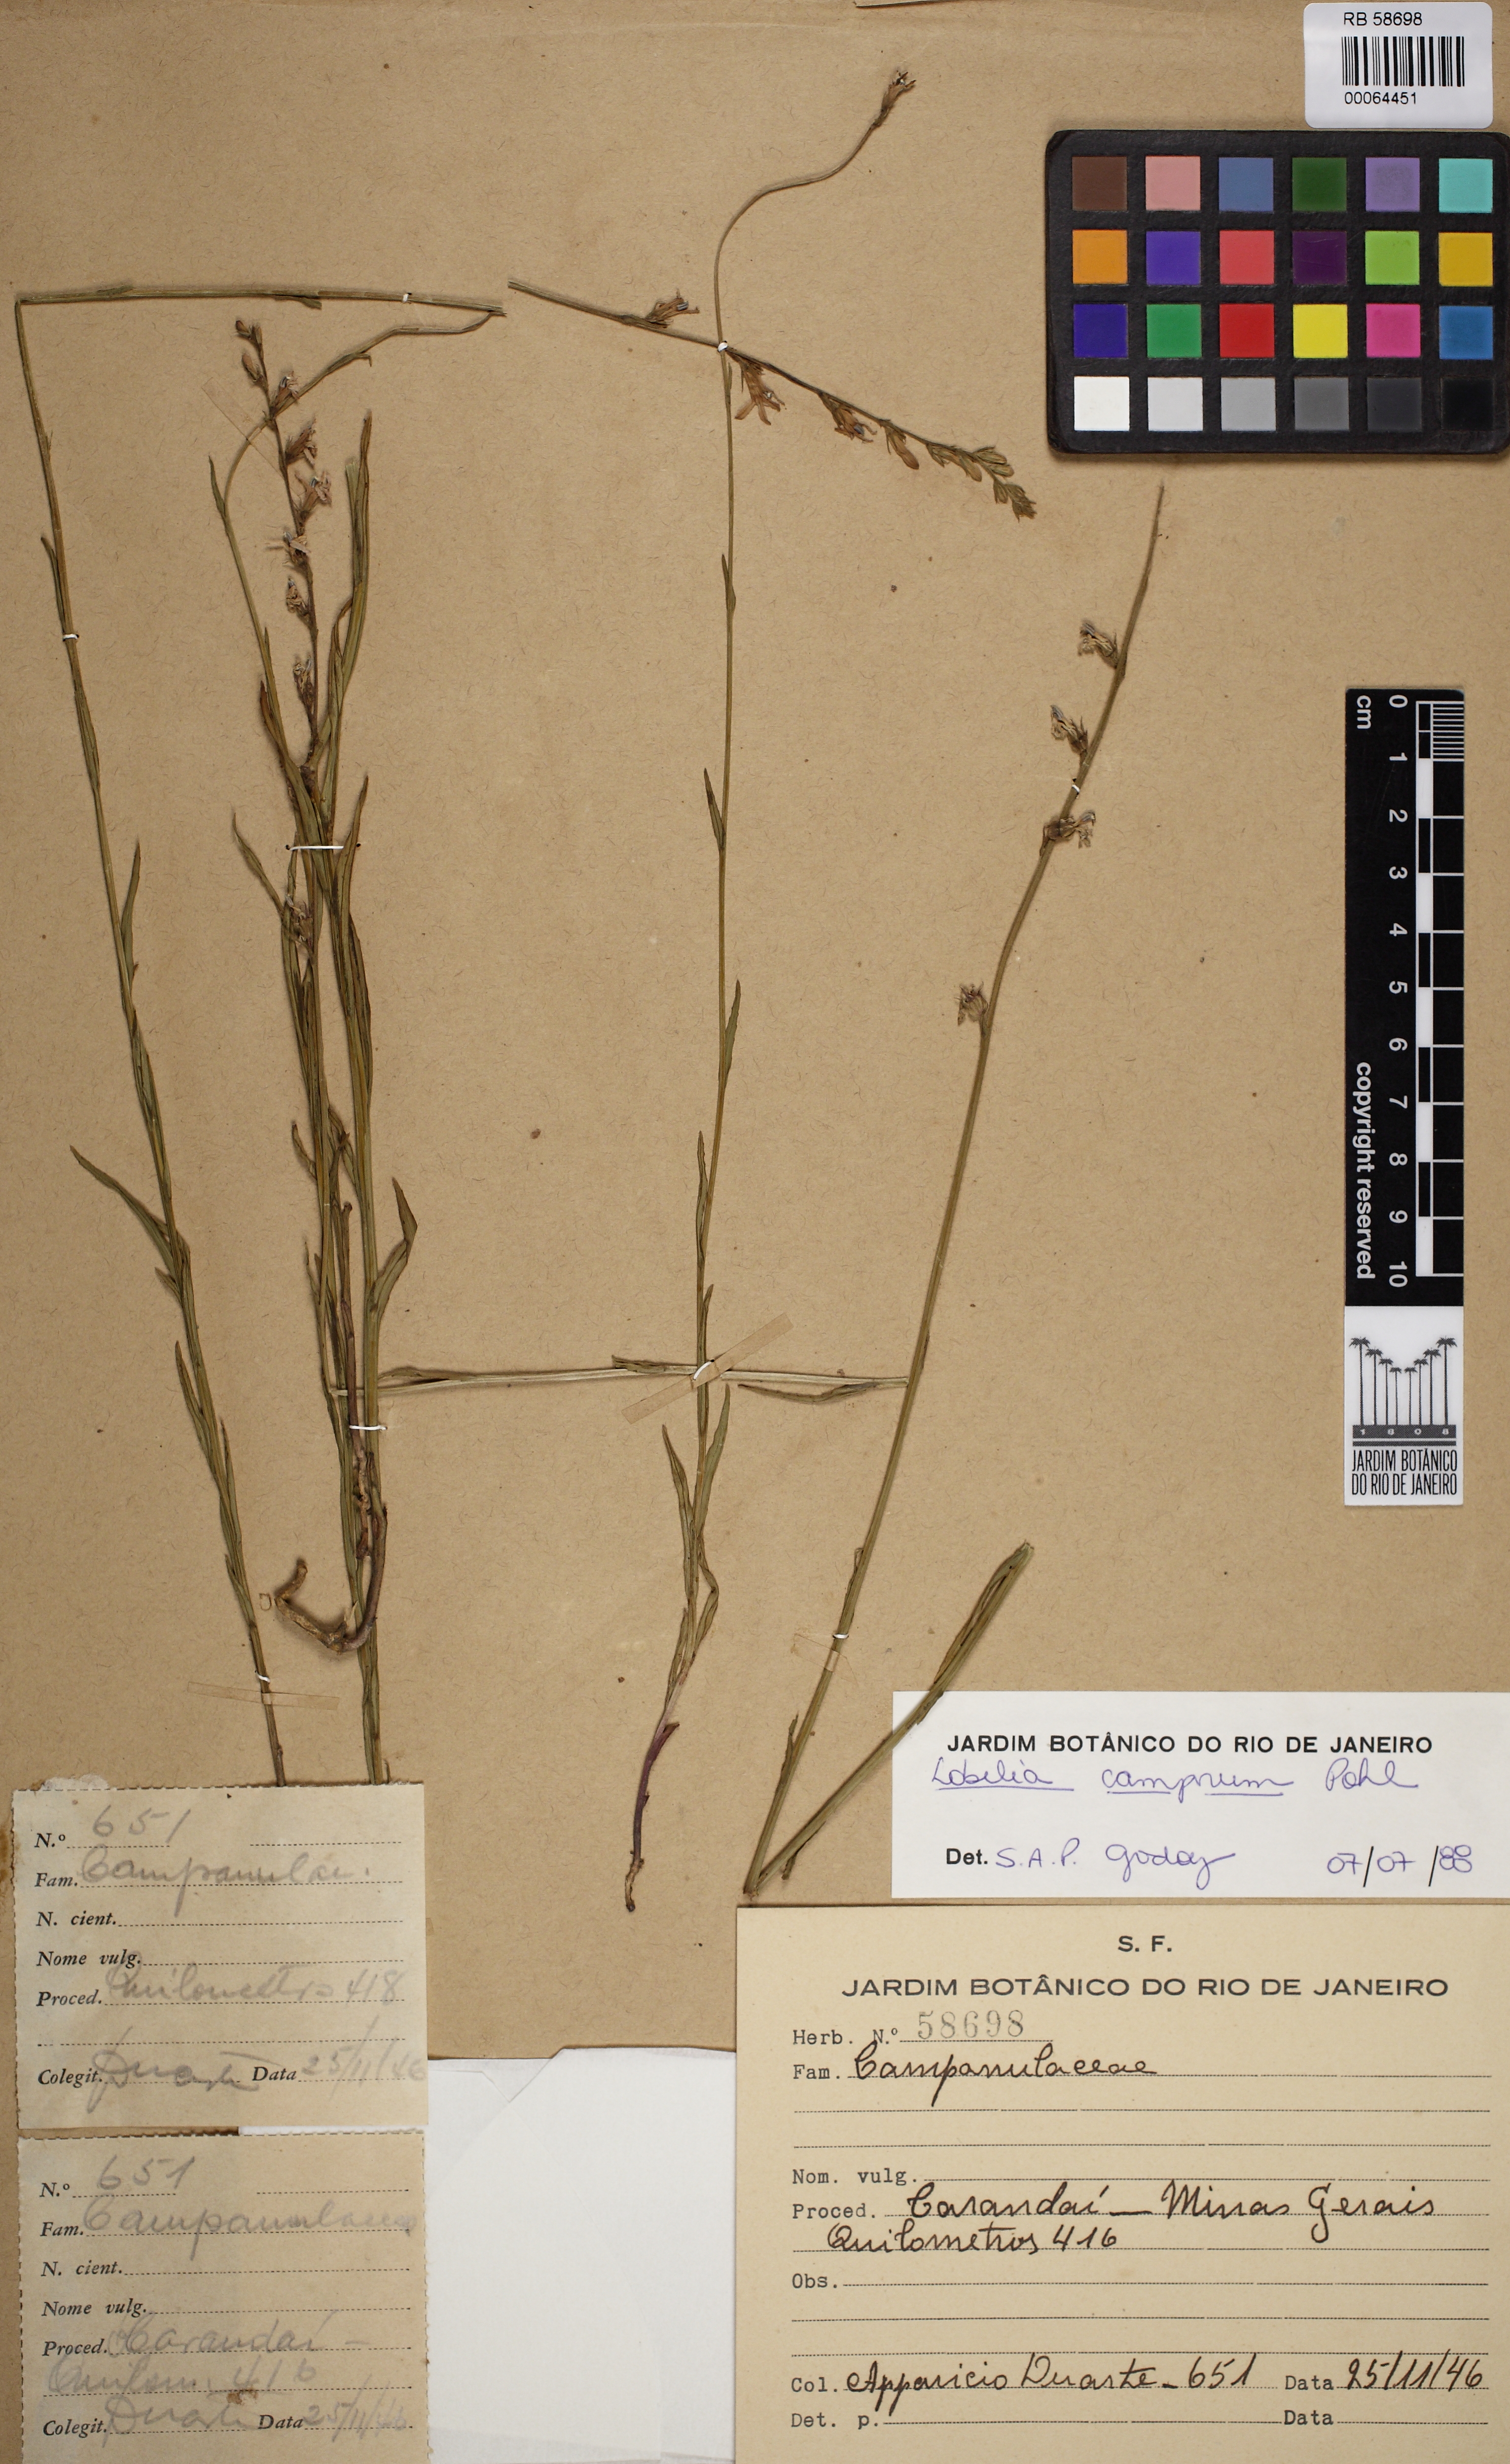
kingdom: Plantae
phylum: Tracheophyta
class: Magnoliopsida
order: Asterales
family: Campanulaceae
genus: Lobelia
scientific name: Lobelia camporum
